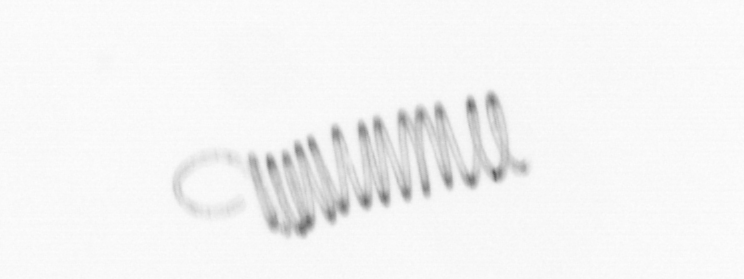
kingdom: Chromista
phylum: Ochrophyta
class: Bacillariophyceae
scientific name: Bacillariophyceae
